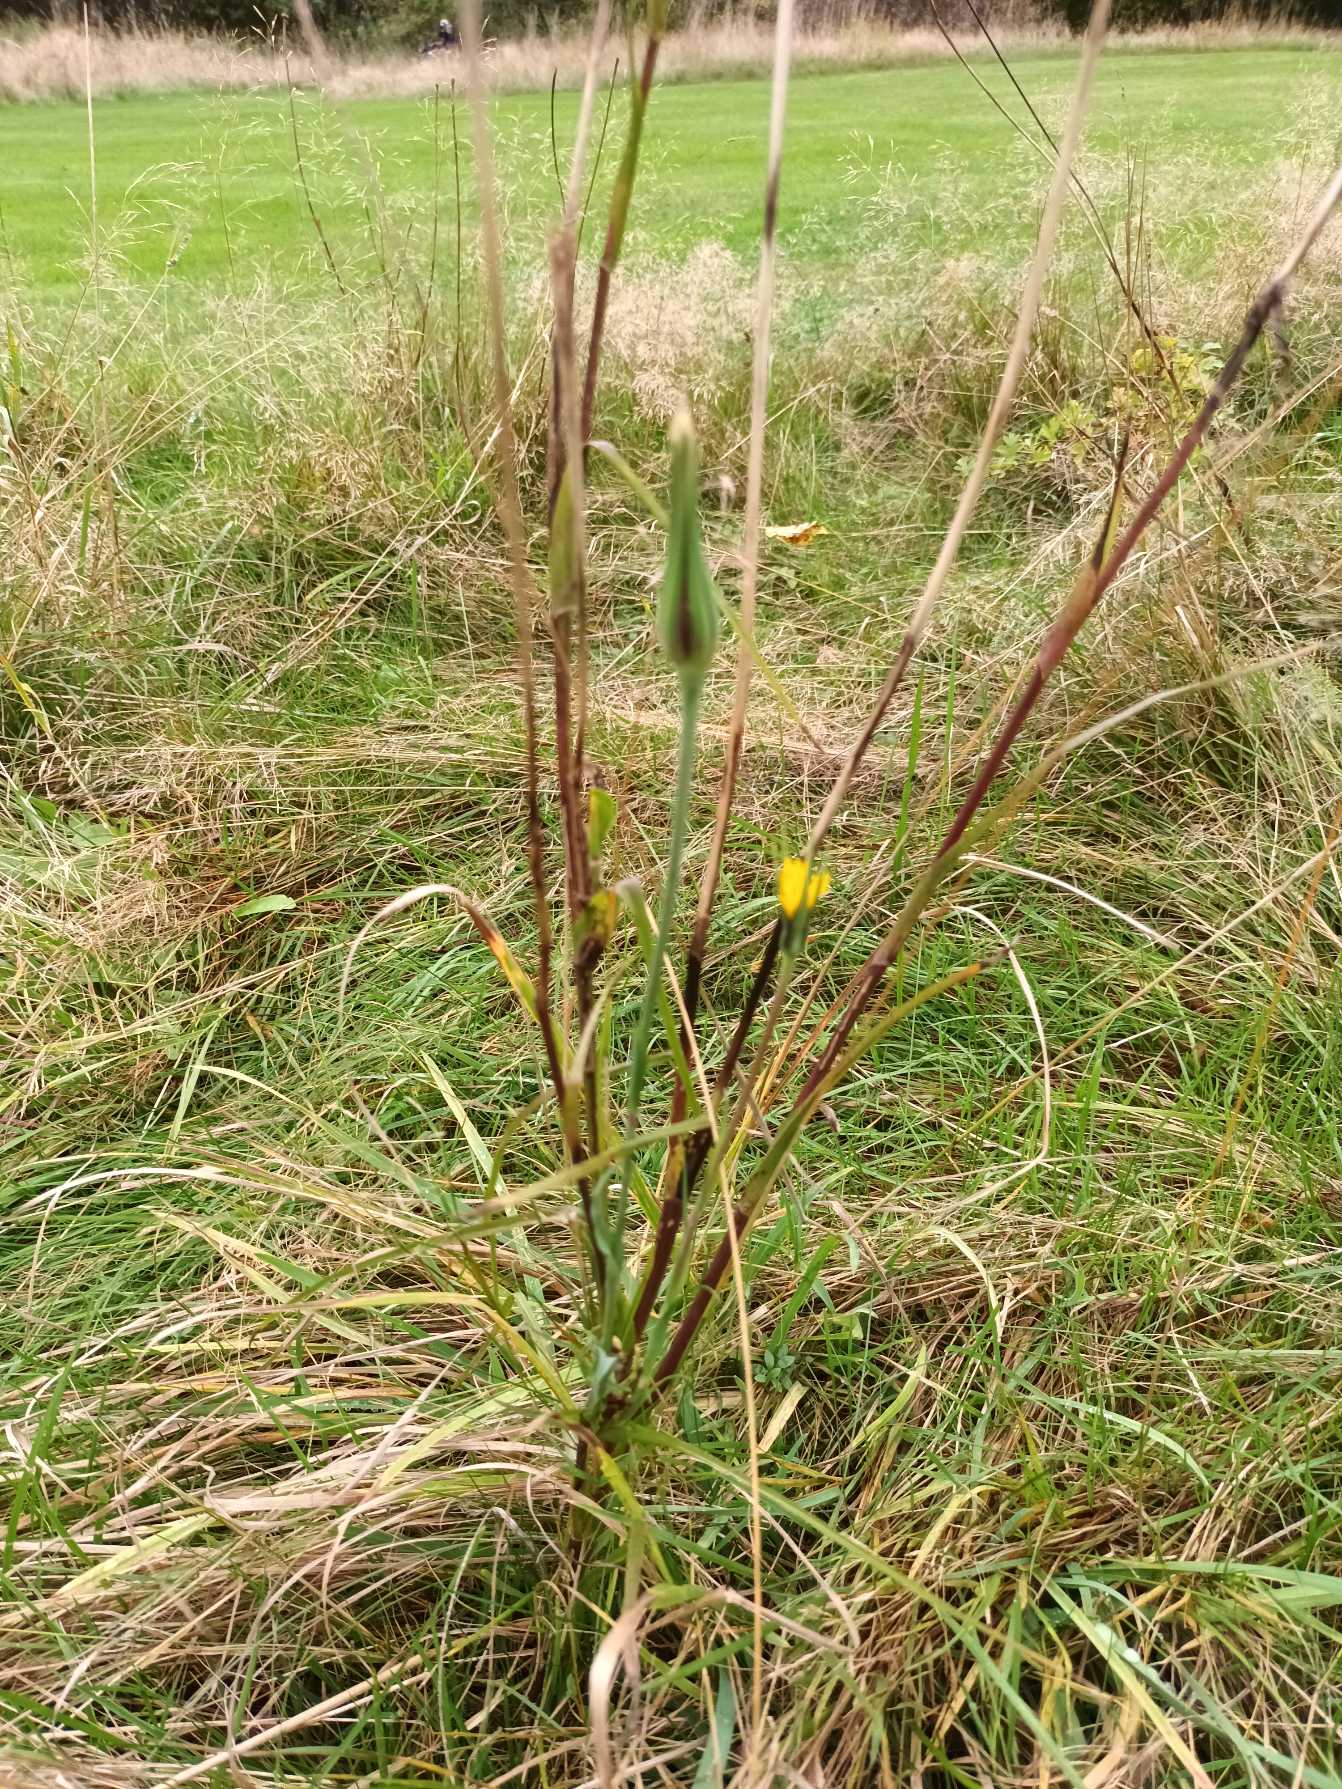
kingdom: Plantae
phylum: Tracheophyta
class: Magnoliopsida
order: Asterales
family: Asteraceae
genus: Tragopogon
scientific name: Tragopogon minor
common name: Småkronet gedeskæg
